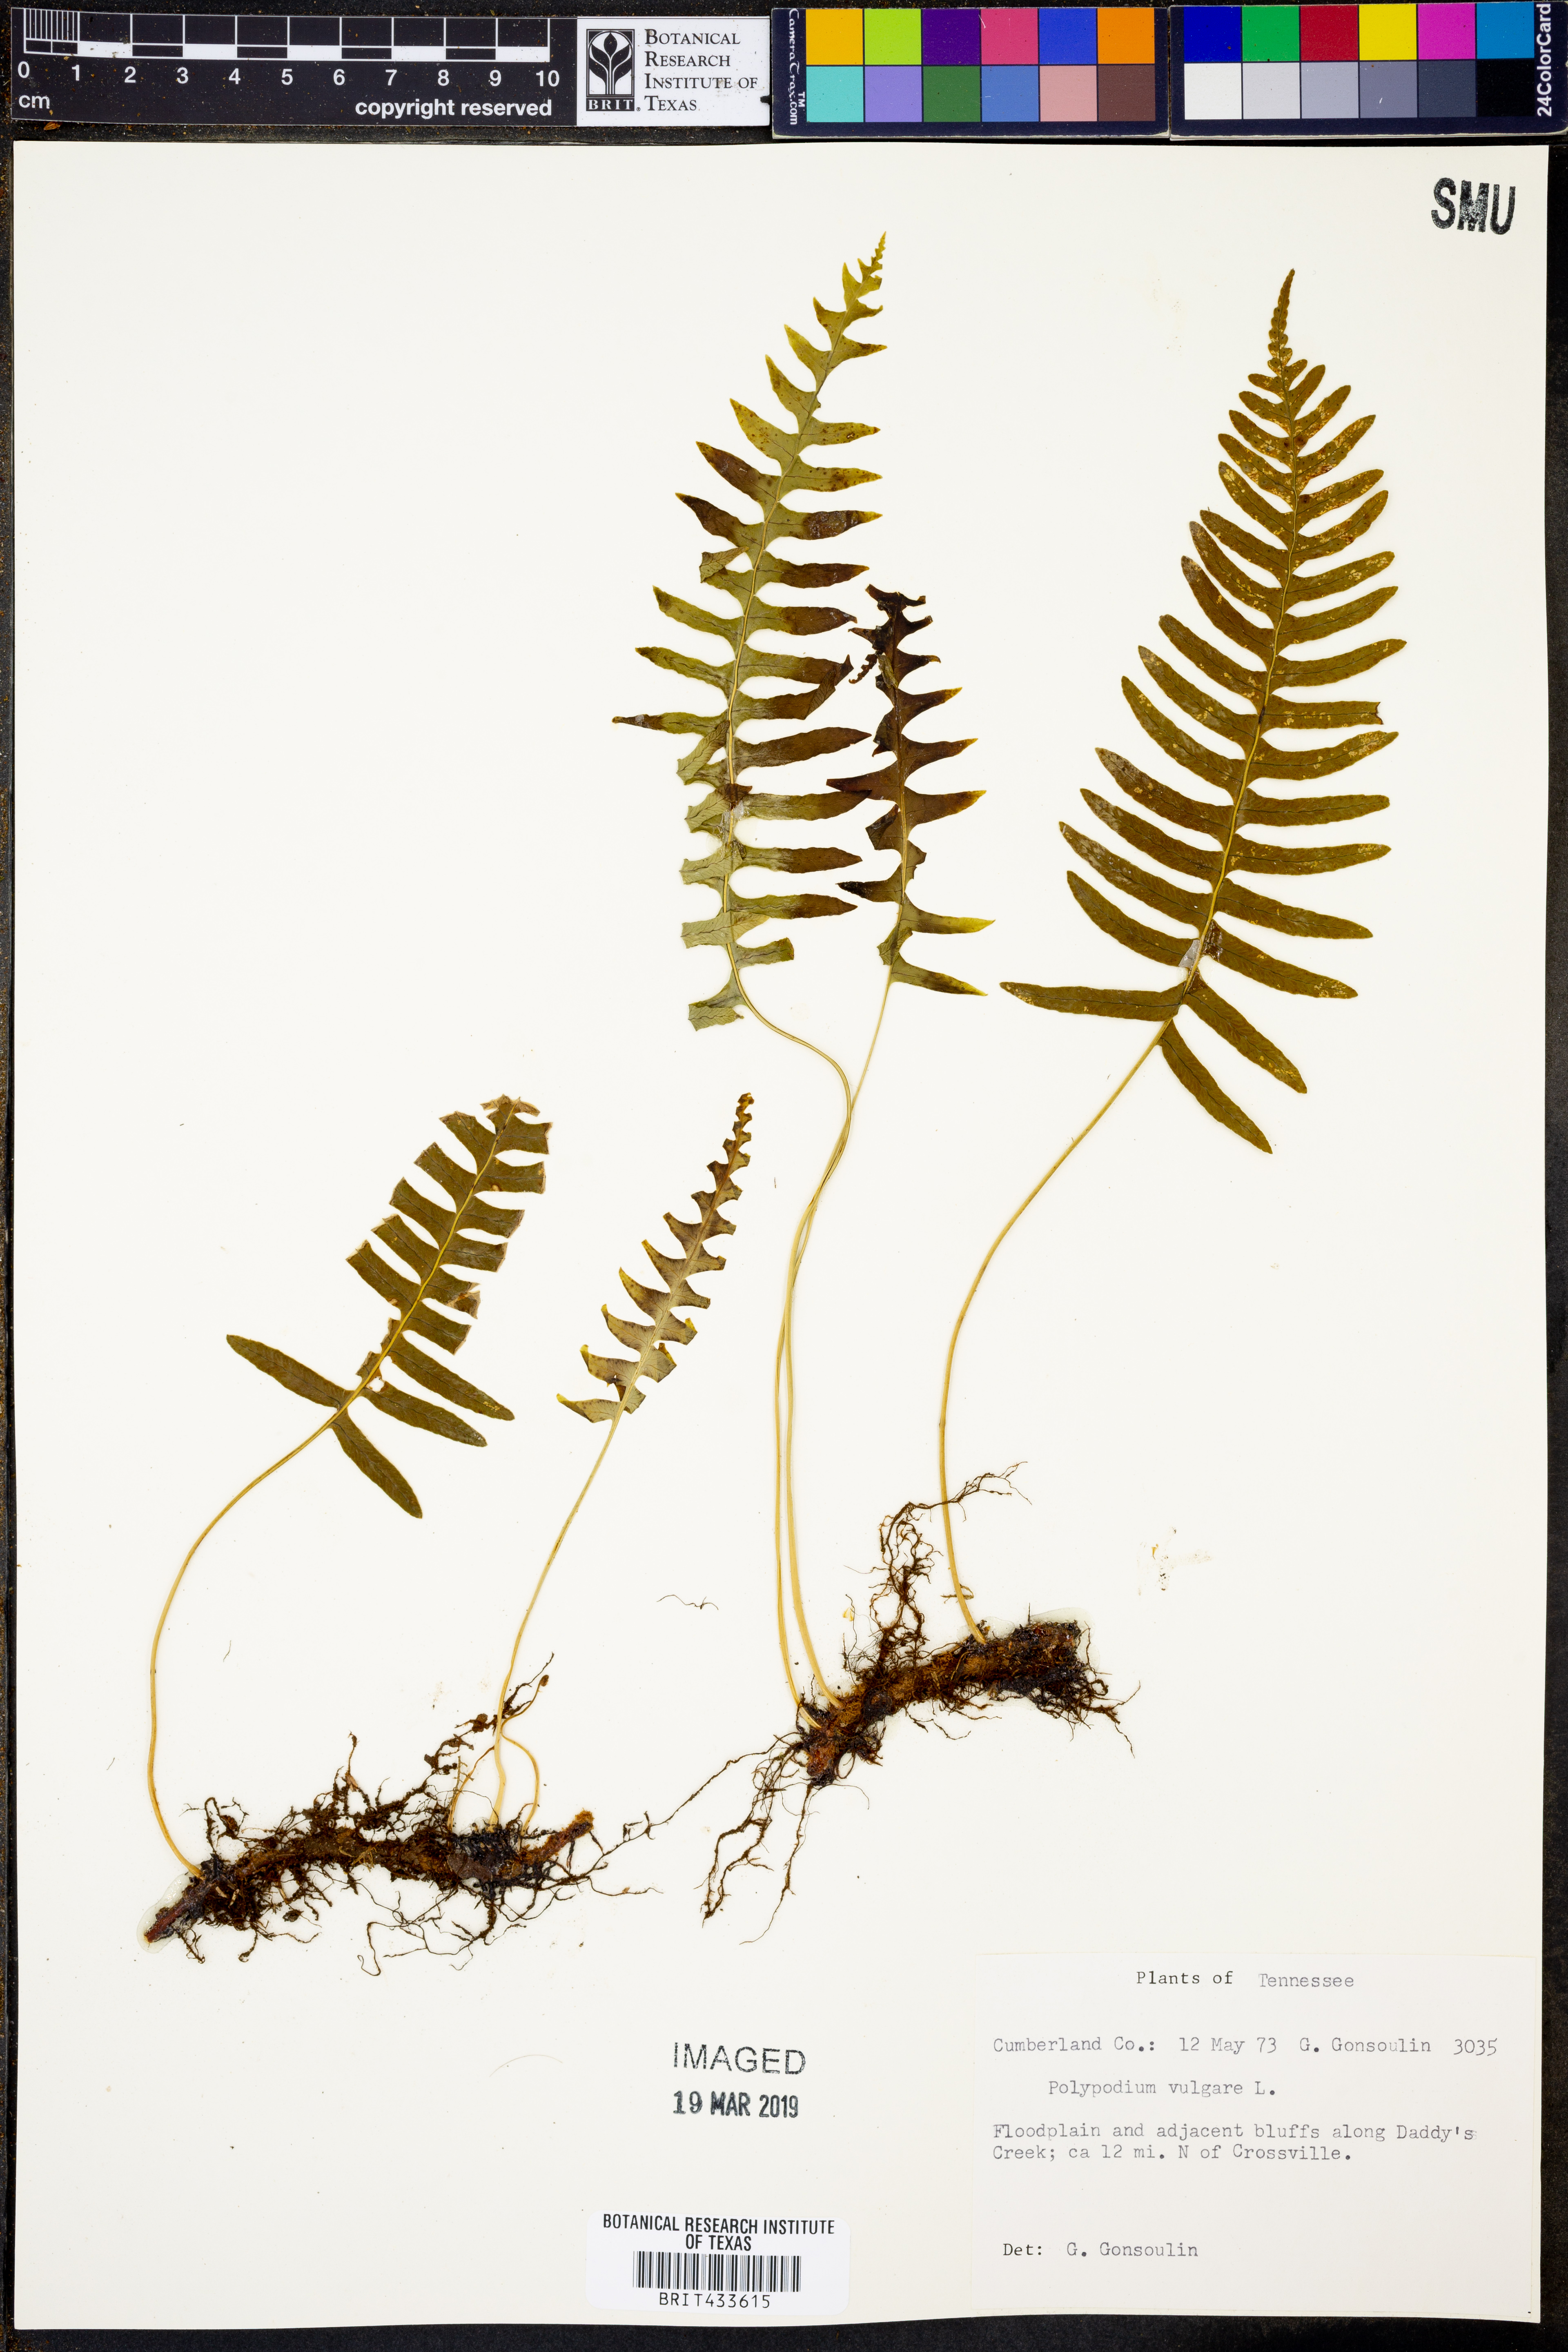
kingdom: Plantae
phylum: Tracheophyta
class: Polypodiopsida
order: Polypodiales
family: Polypodiaceae
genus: Polypodium
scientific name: Polypodium vulgare
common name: Common polypody
